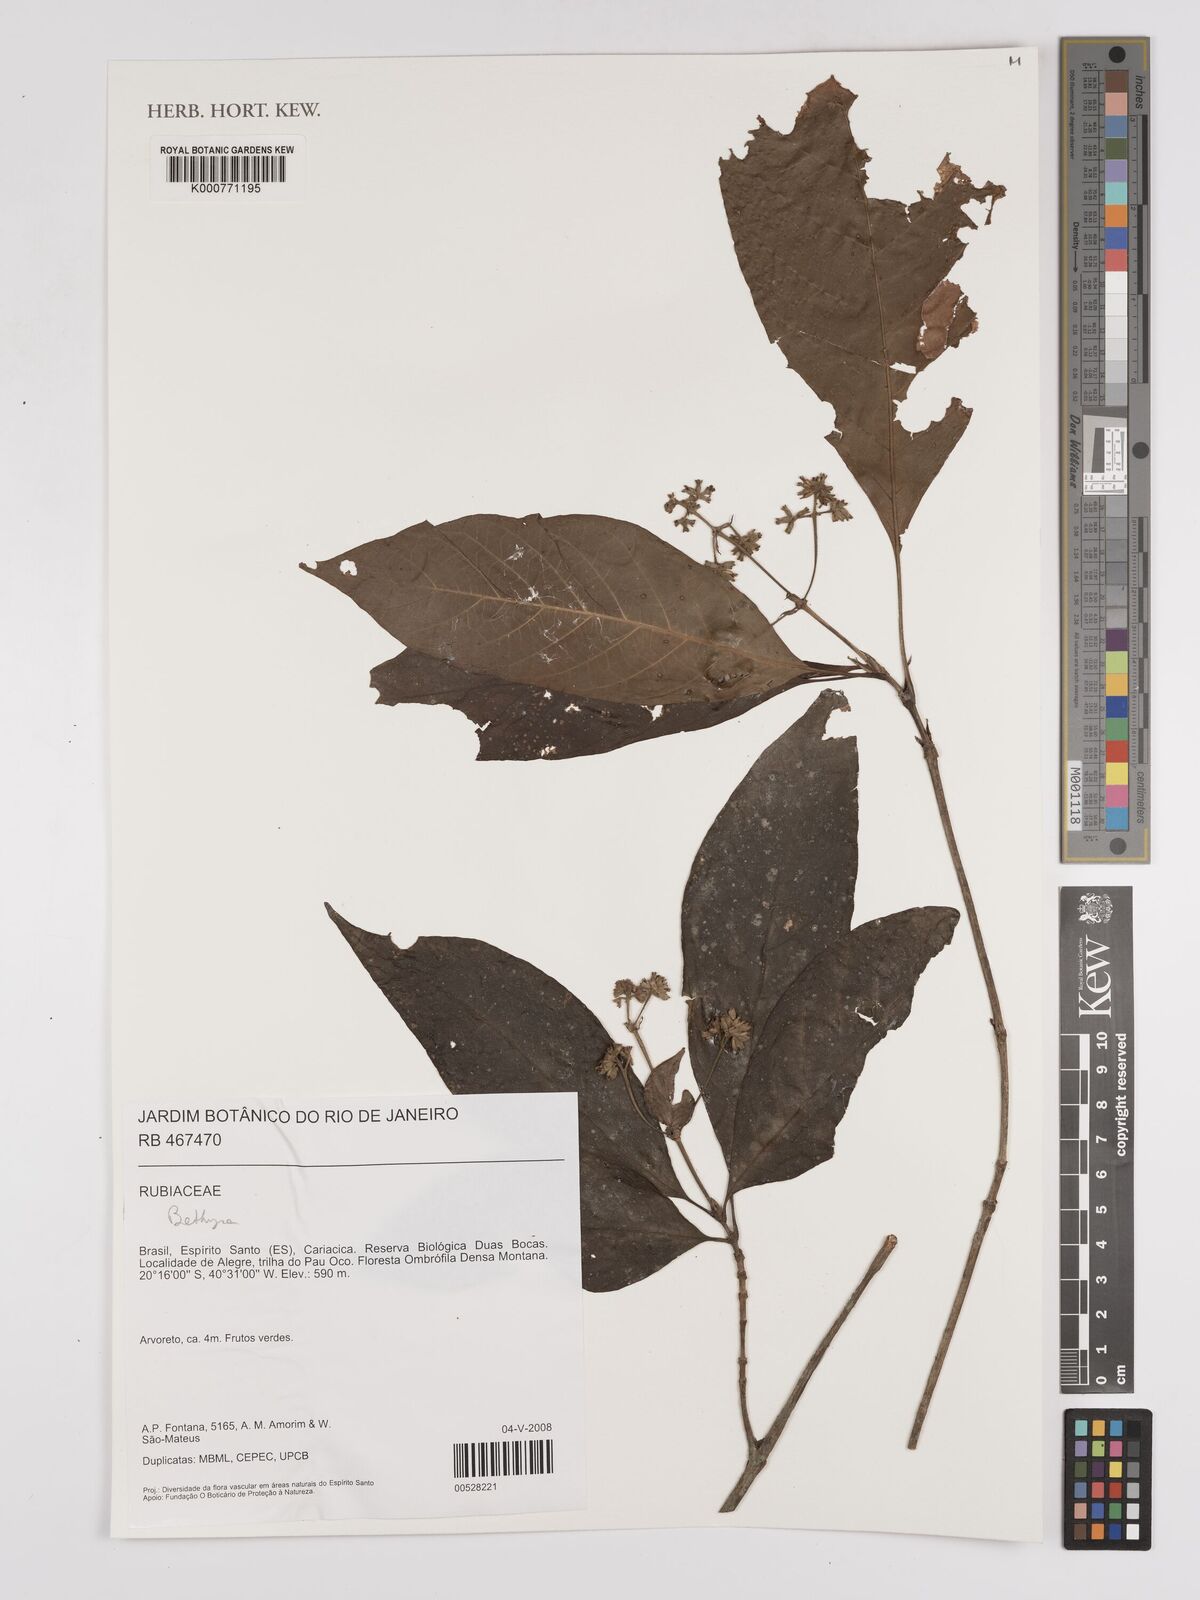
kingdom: Plantae
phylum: Tracheophyta
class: Magnoliopsida
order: Gentianales
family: Rubiaceae
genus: Bathysa
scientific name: Bathysa
